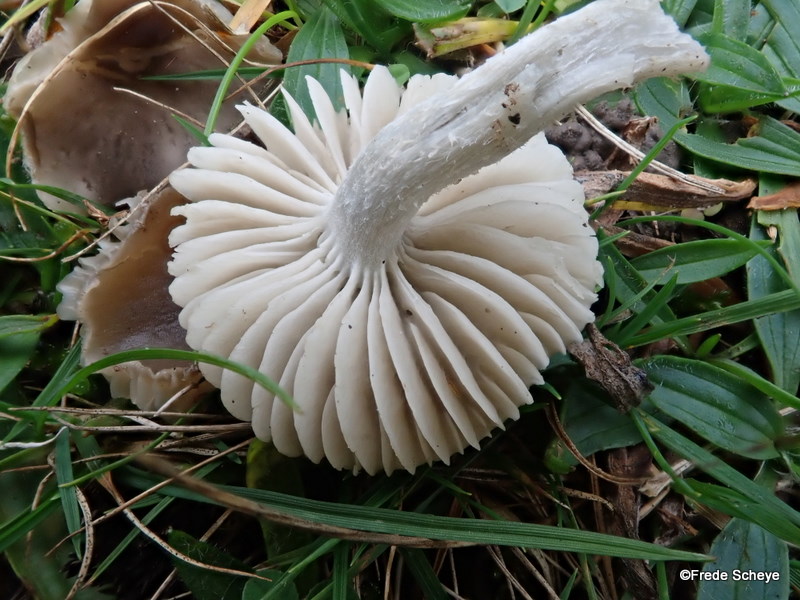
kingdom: Fungi
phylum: Basidiomycota
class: Agaricomycetes
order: Agaricales
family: Tricholomataceae
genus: Dermoloma
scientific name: Dermoloma cuneifolium
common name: eng-nonnehat
